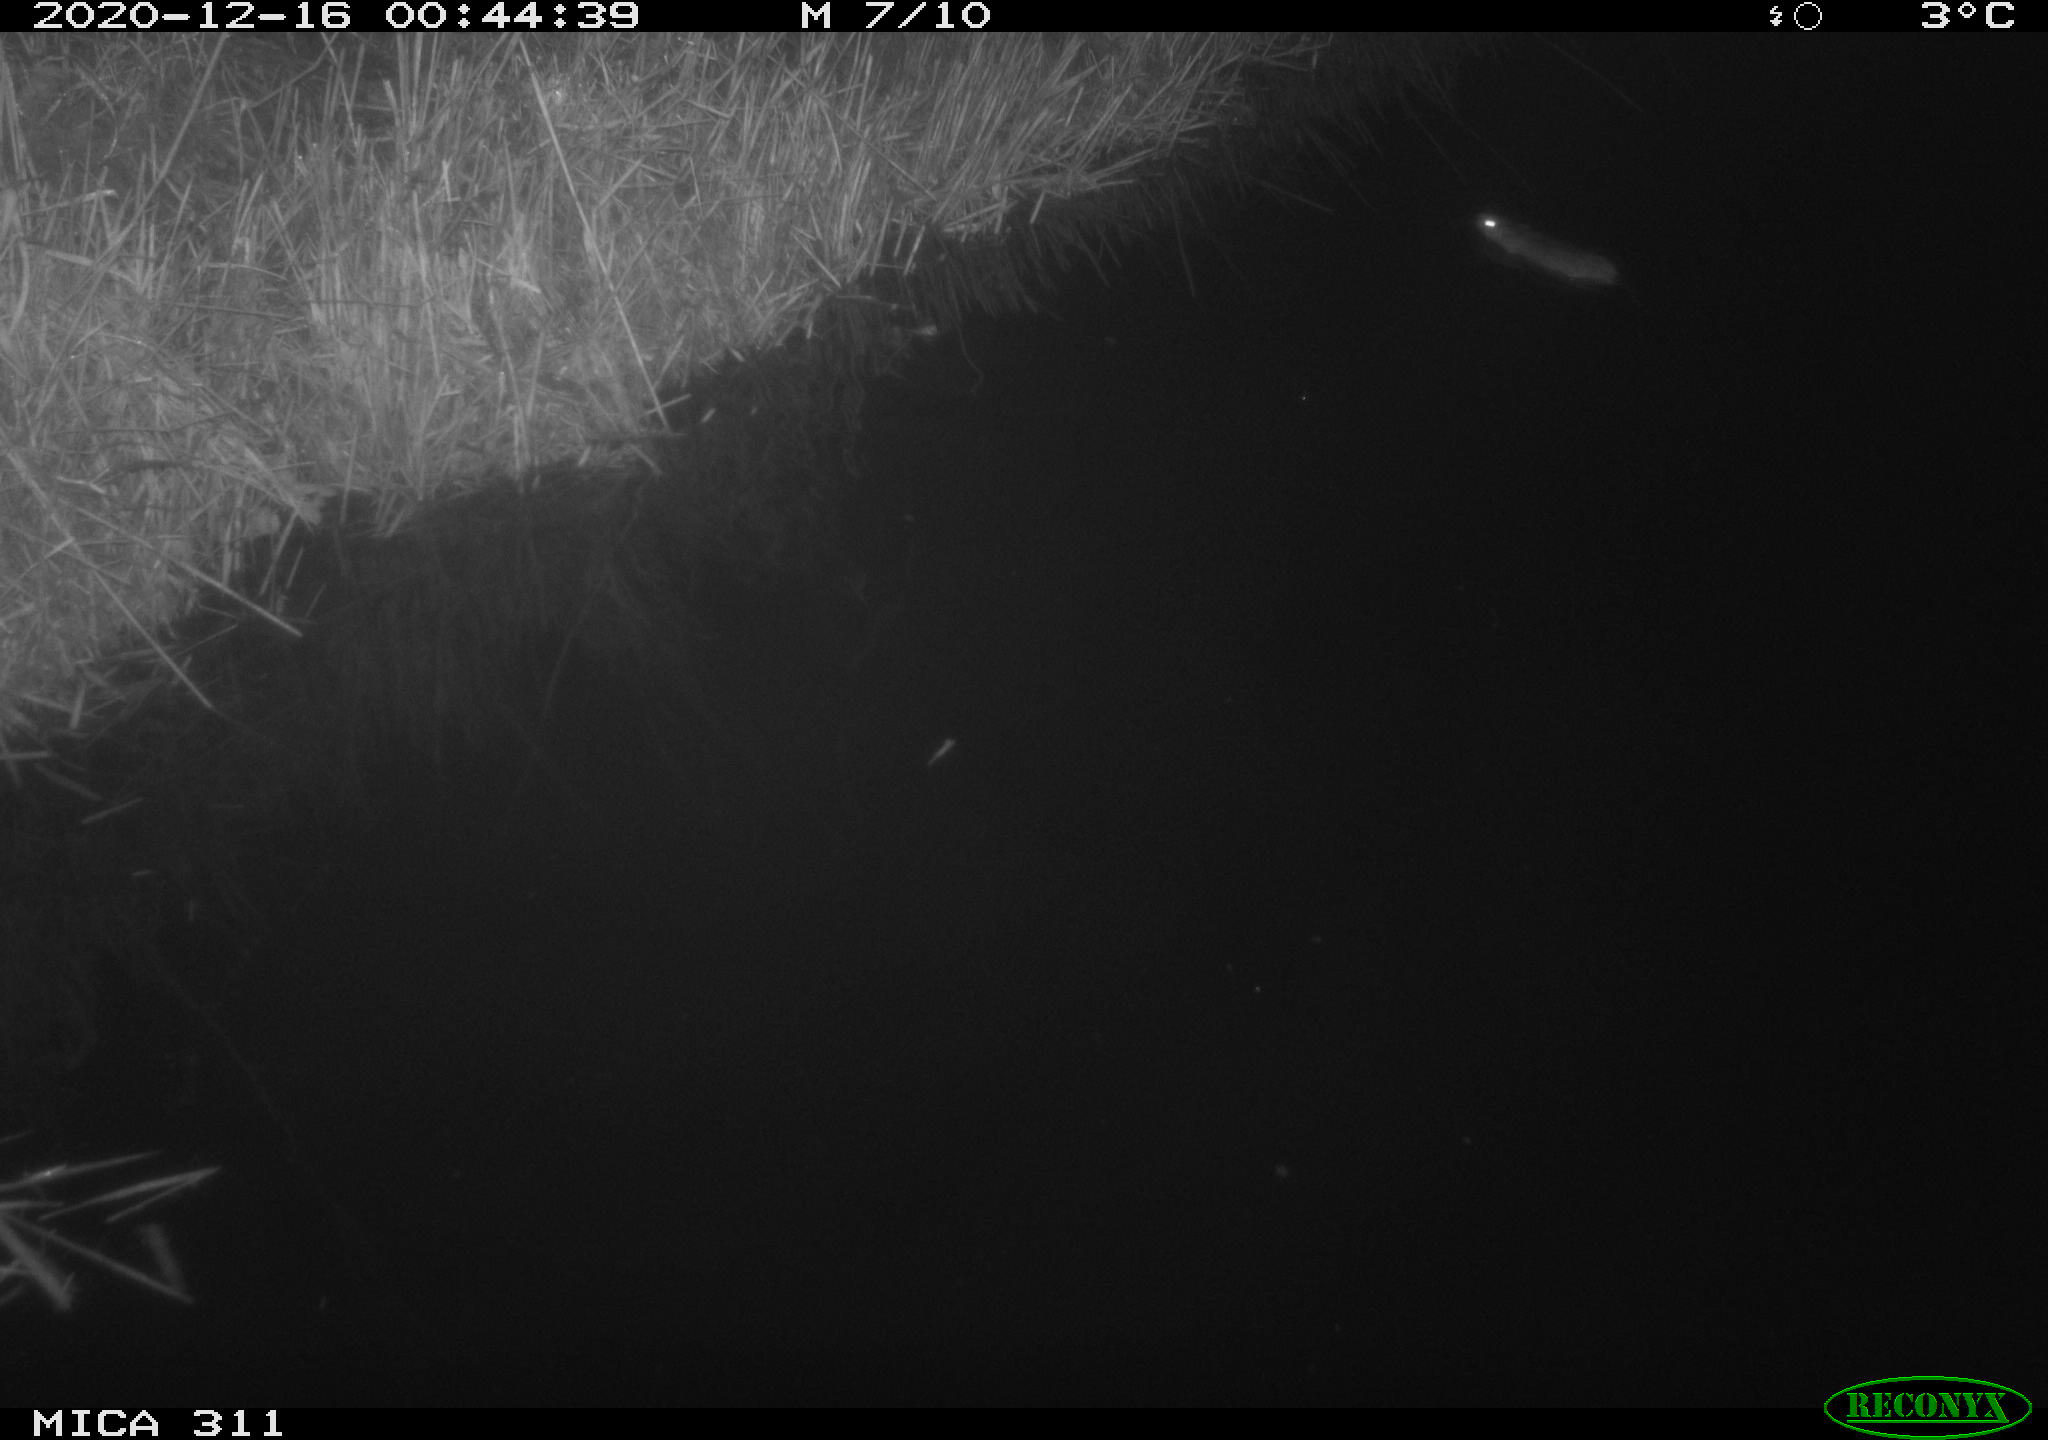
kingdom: Animalia
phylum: Chordata
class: Mammalia
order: Rodentia
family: Muridae
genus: Rattus
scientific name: Rattus norvegicus
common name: Brown rat
